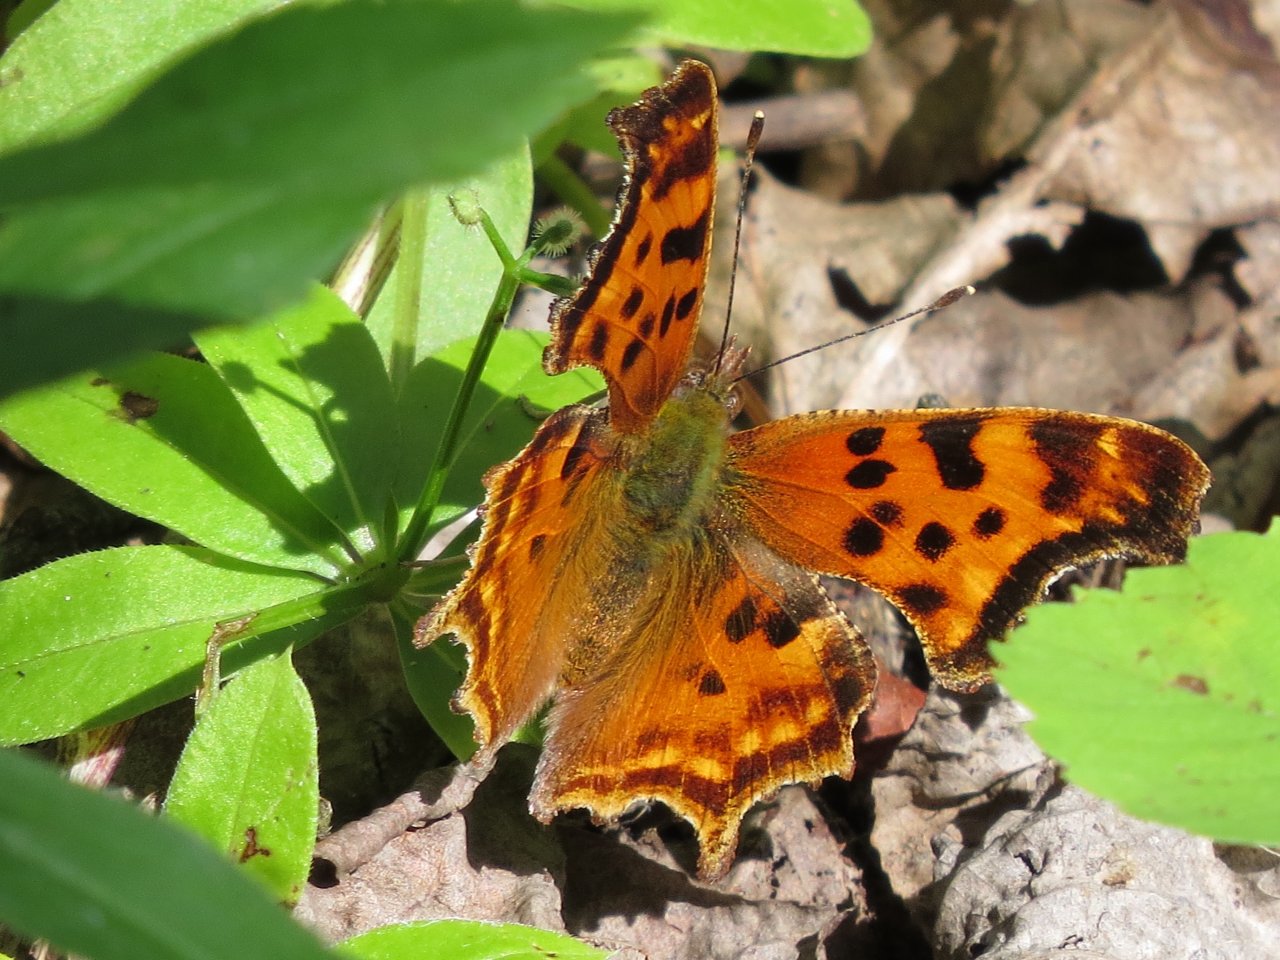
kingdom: Animalia
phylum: Arthropoda
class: Insecta
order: Lepidoptera
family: Nymphalidae
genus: Polygonia
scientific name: Polygonia faunus
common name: Green Comma
